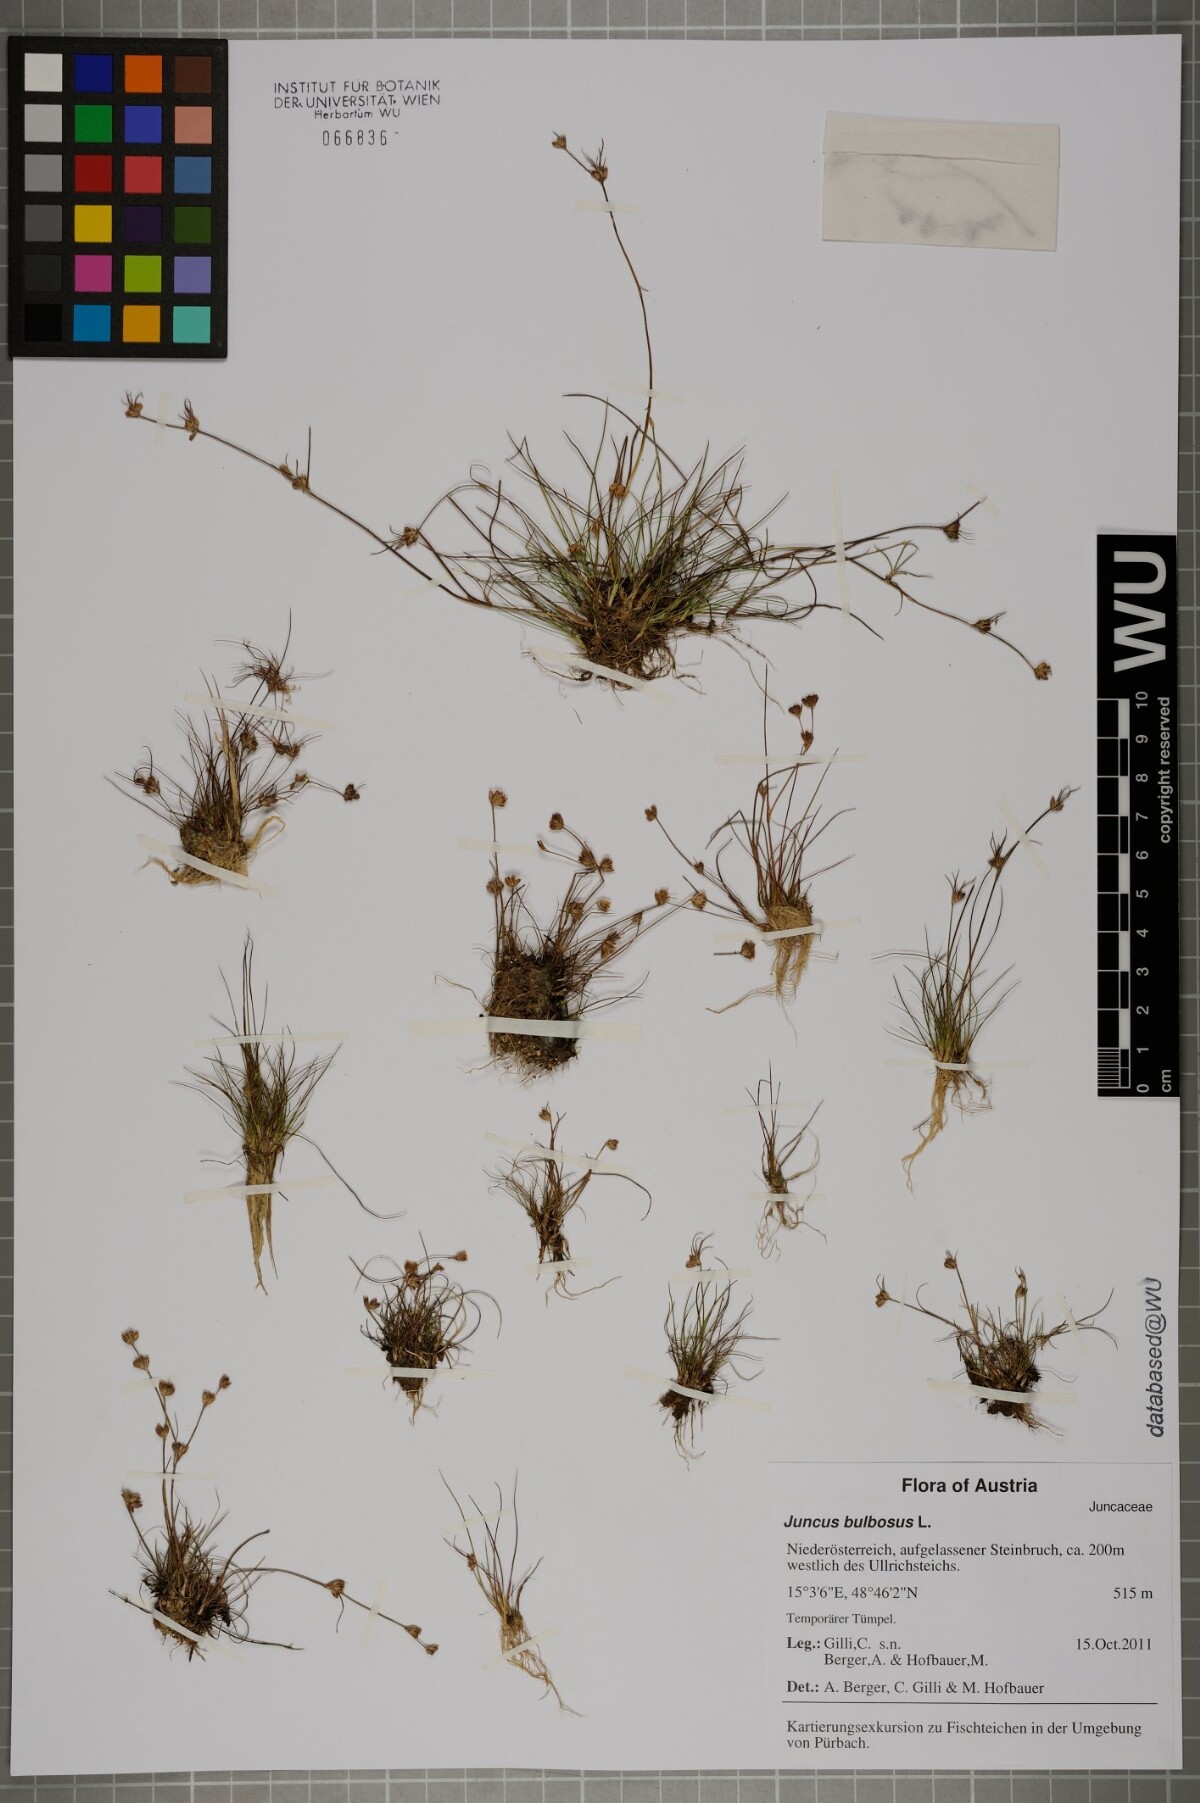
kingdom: Plantae
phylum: Tracheophyta
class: Liliopsida
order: Poales
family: Juncaceae
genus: Juncus
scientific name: Juncus bulbosus
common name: Bulbous rush
